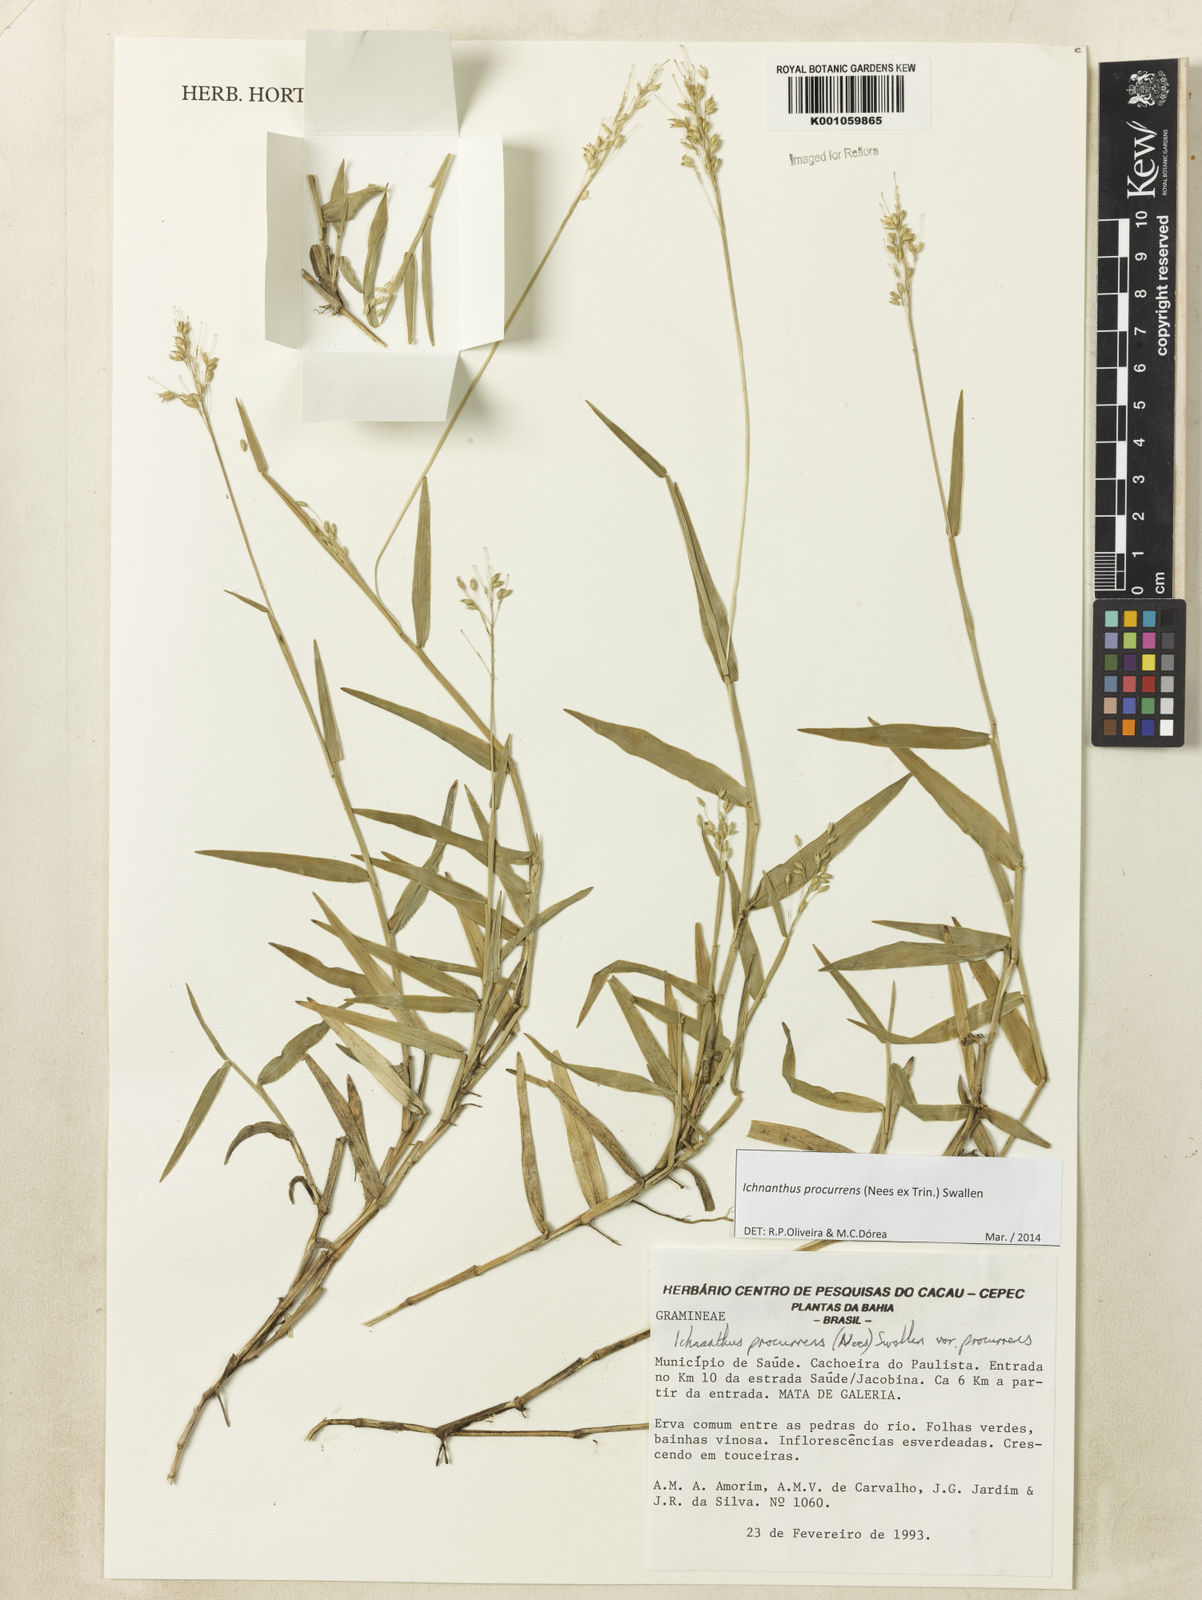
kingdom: Plantae
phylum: Tracheophyta
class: Liliopsida
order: Poales
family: Poaceae
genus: Oedochloa
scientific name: Oedochloa procurrens
